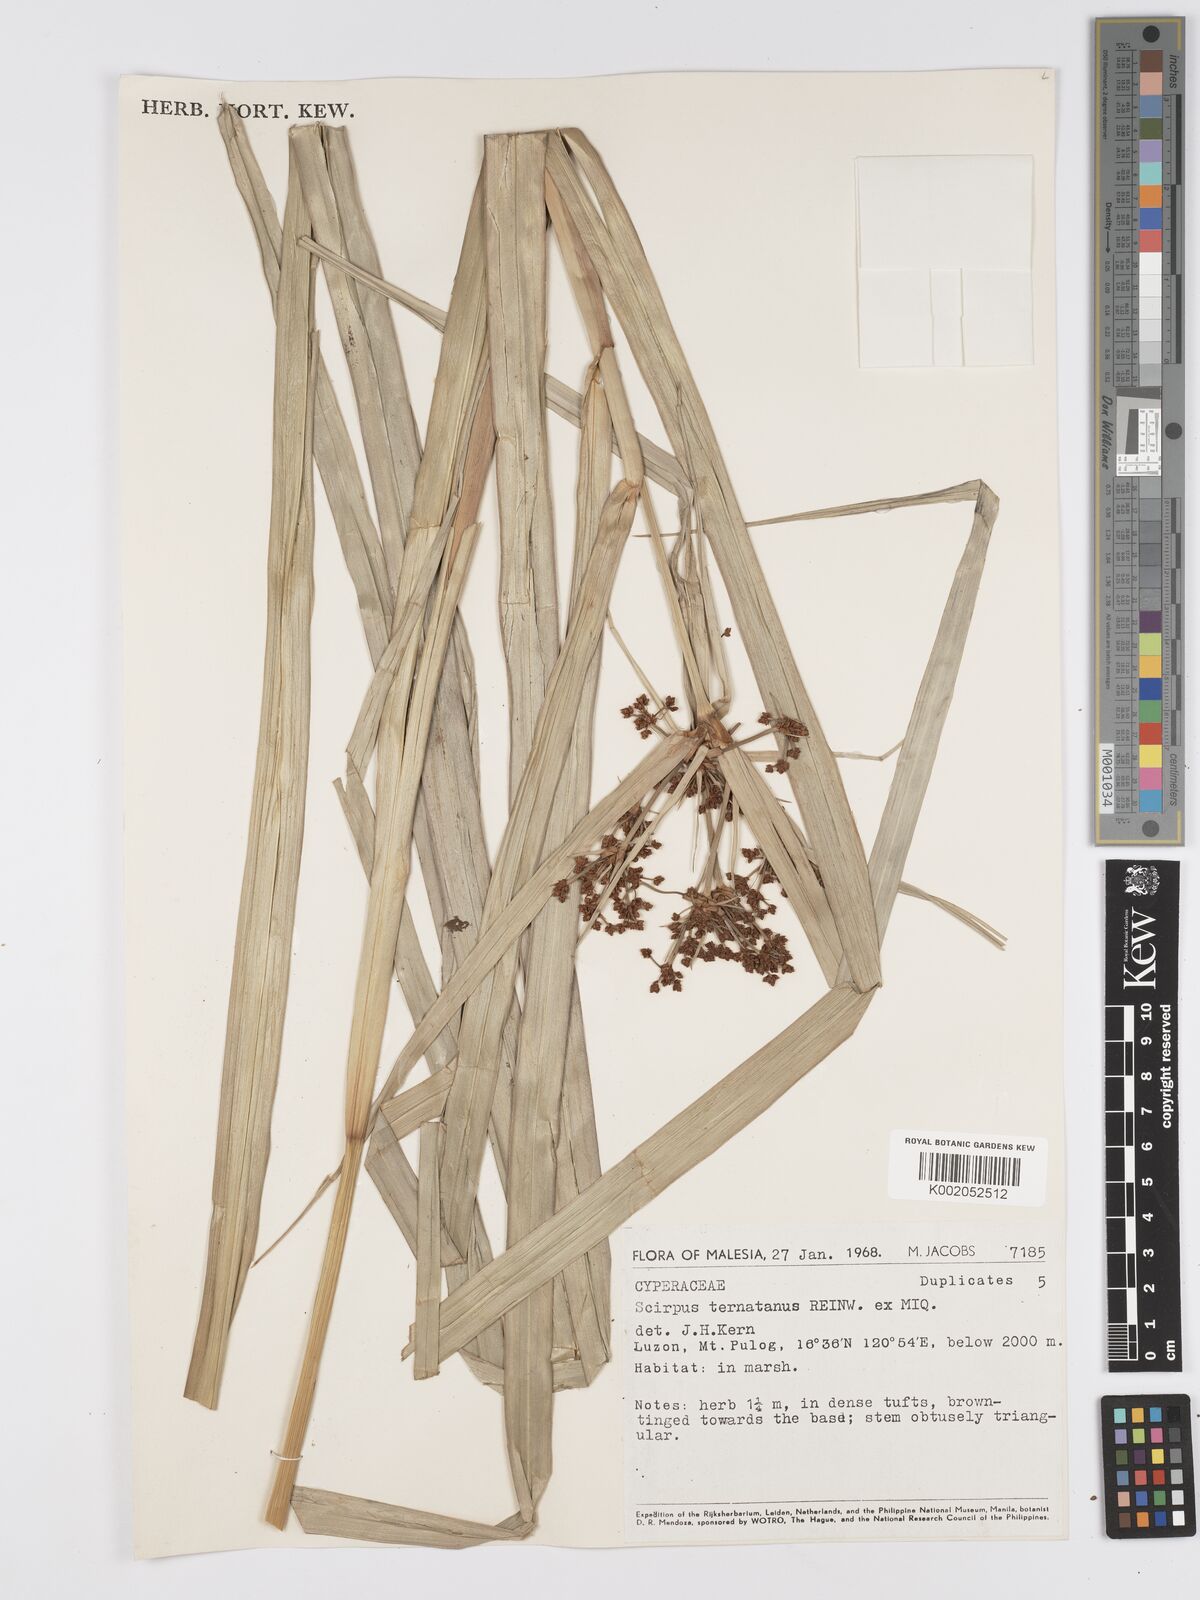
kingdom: Plantae
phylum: Tracheophyta
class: Liliopsida
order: Poales
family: Cyperaceae
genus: Scirpus
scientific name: Scirpus ternatanus
